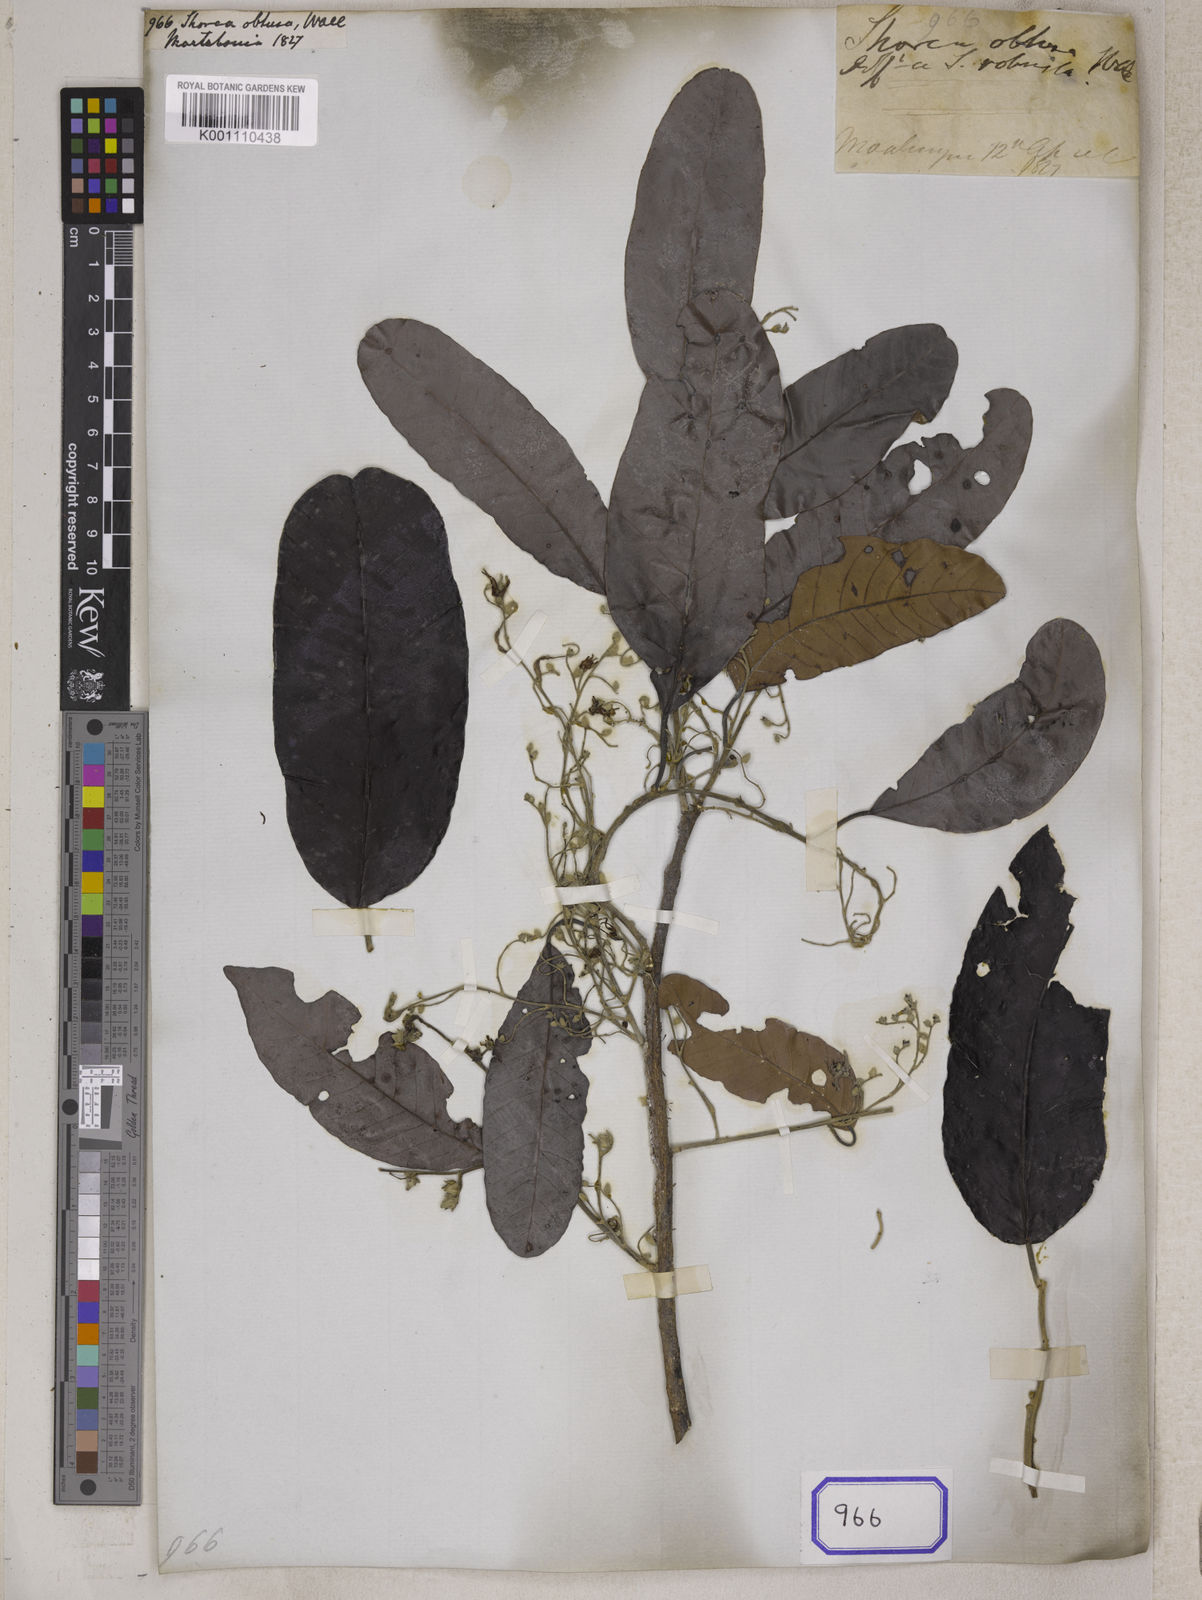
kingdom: Plantae
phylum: Tracheophyta
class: Magnoliopsida
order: Malvales
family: Dipterocarpaceae
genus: Shorea
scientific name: Shorea
